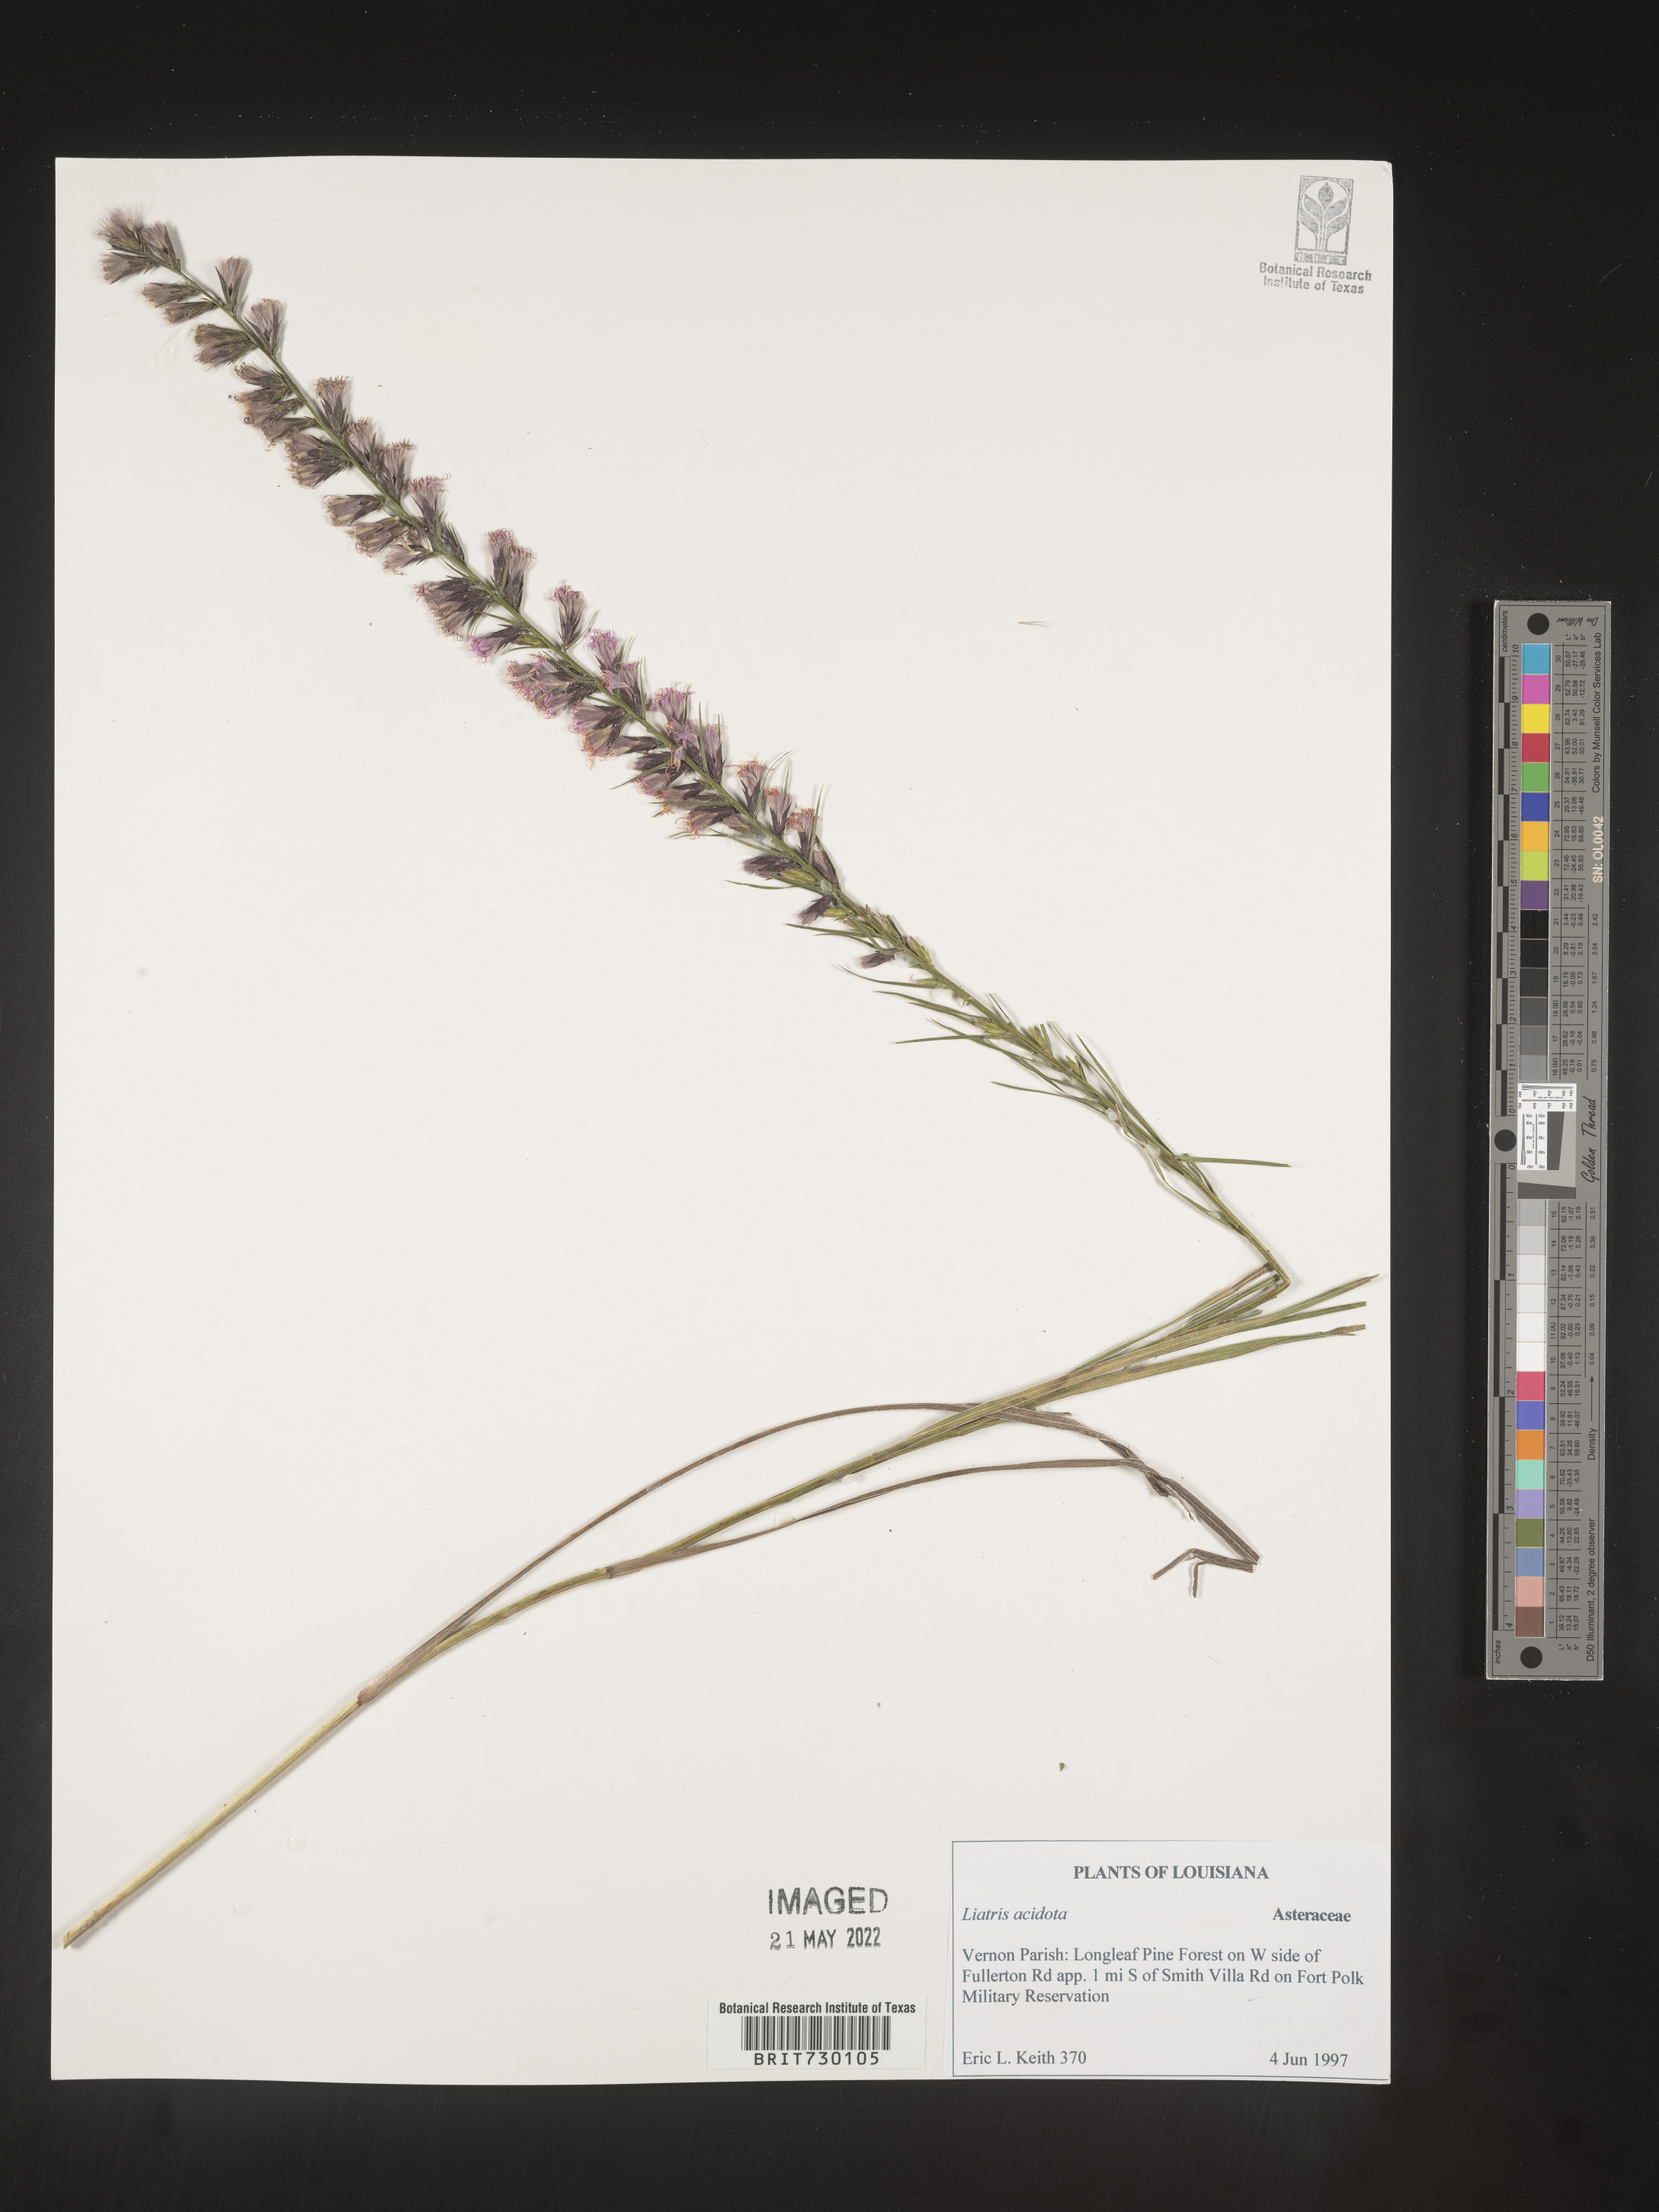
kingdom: Plantae
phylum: Tracheophyta
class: Magnoliopsida
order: Asterales
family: Asteraceae
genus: Liatris
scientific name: Liatris acidota
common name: Gulf coast gayfeather
